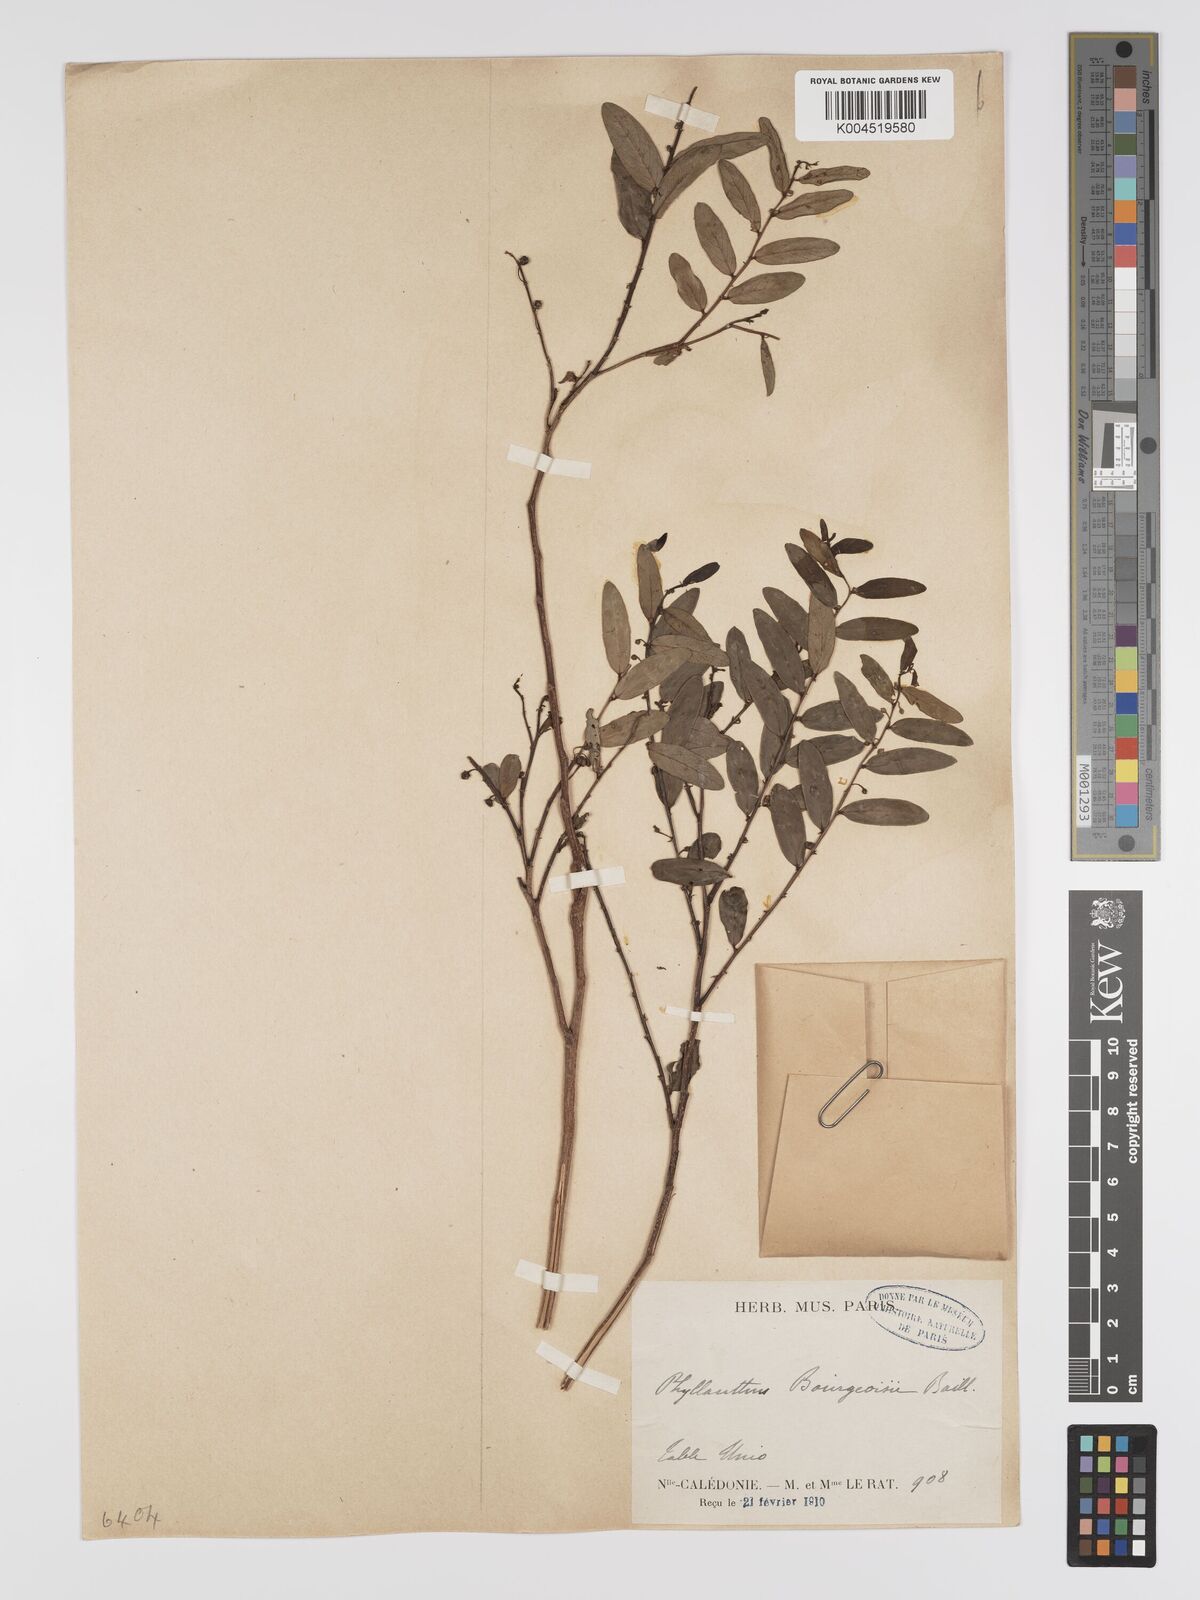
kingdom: Plantae
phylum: Tracheophyta
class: Magnoliopsida
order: Malpighiales
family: Phyllanthaceae
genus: Phyllanthus
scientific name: Phyllanthus bourgeoisii
